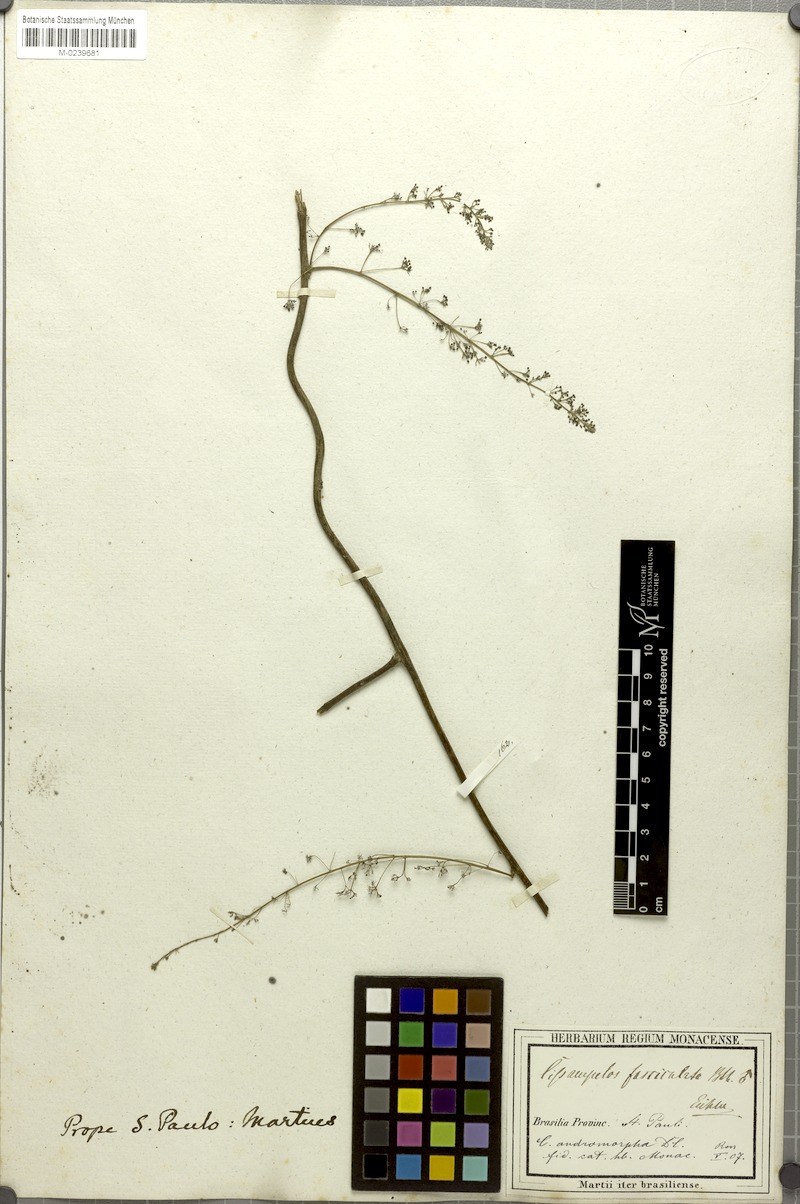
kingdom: Plantae
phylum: Tracheophyta
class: Magnoliopsida
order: Ranunculales
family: Menispermaceae
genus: Cissampelos
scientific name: Cissampelos andromorpha
